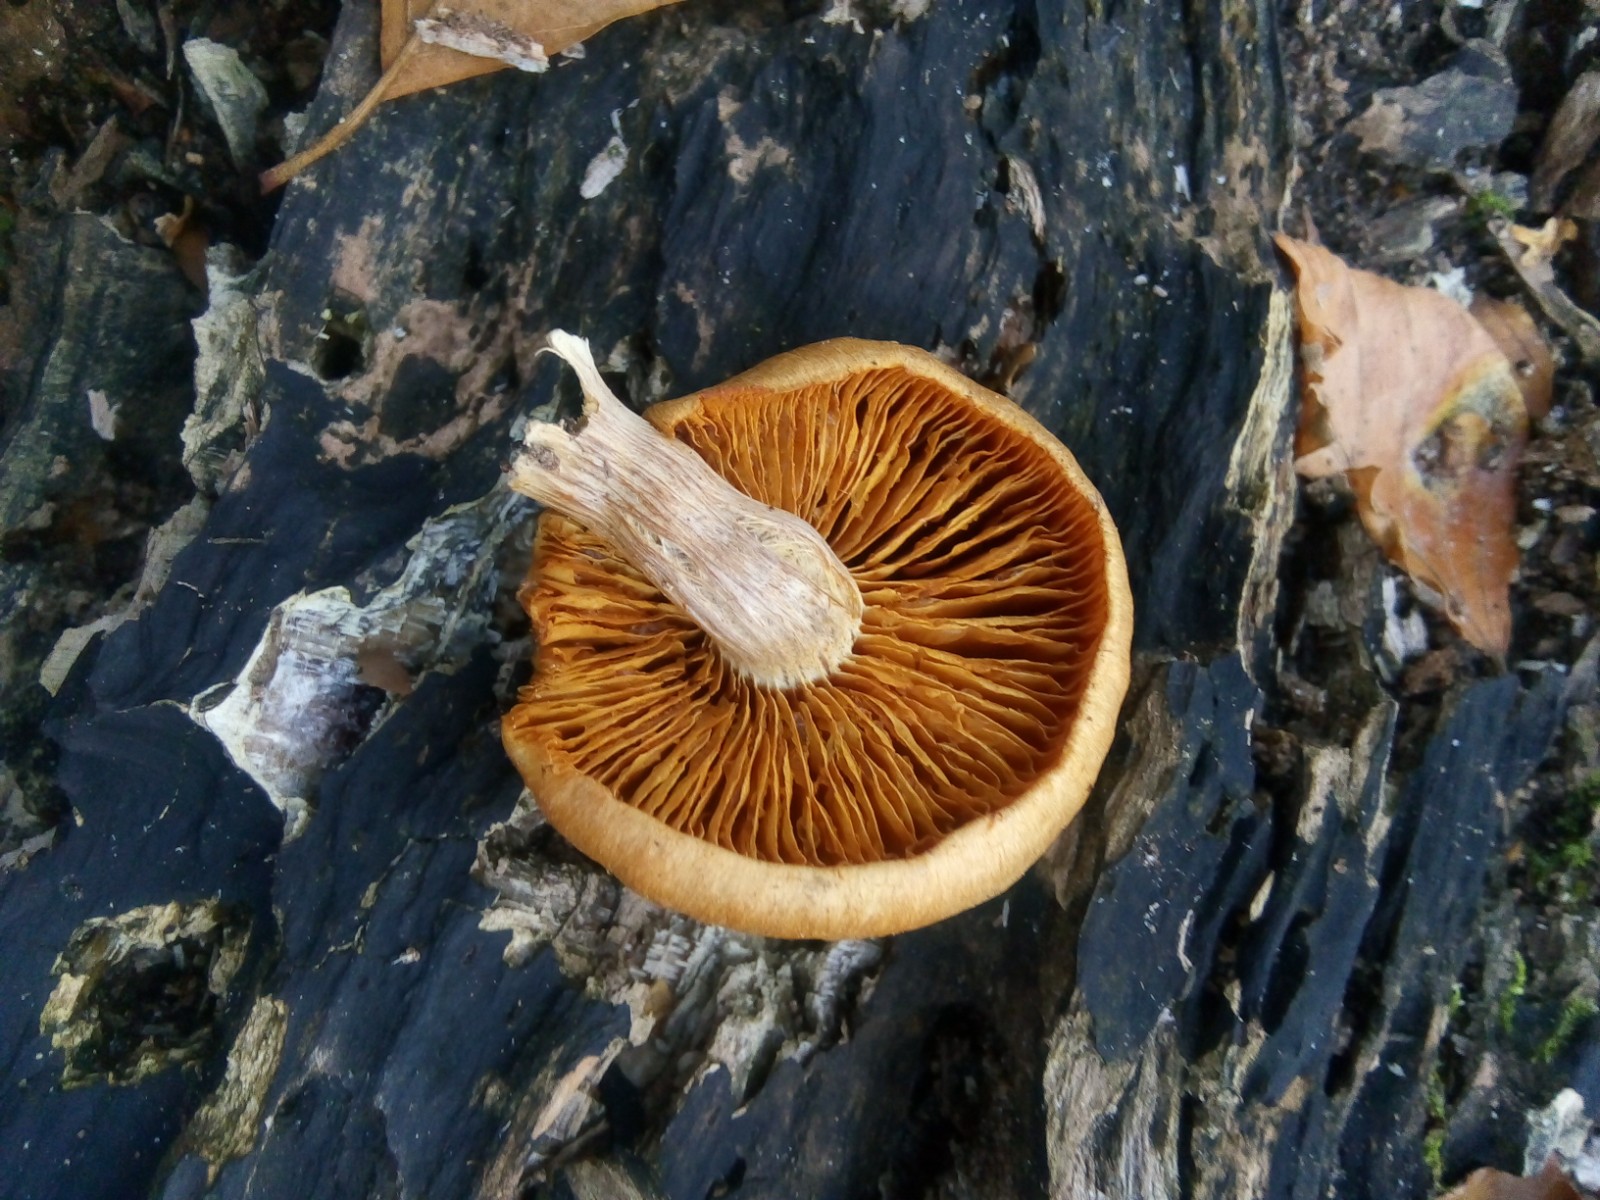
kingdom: Fungi
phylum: Basidiomycota
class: Agaricomycetes
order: Agaricales
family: Hymenogastraceae
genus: Gymnopilus
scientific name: Gymnopilus penetrans
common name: plettet flammehat
